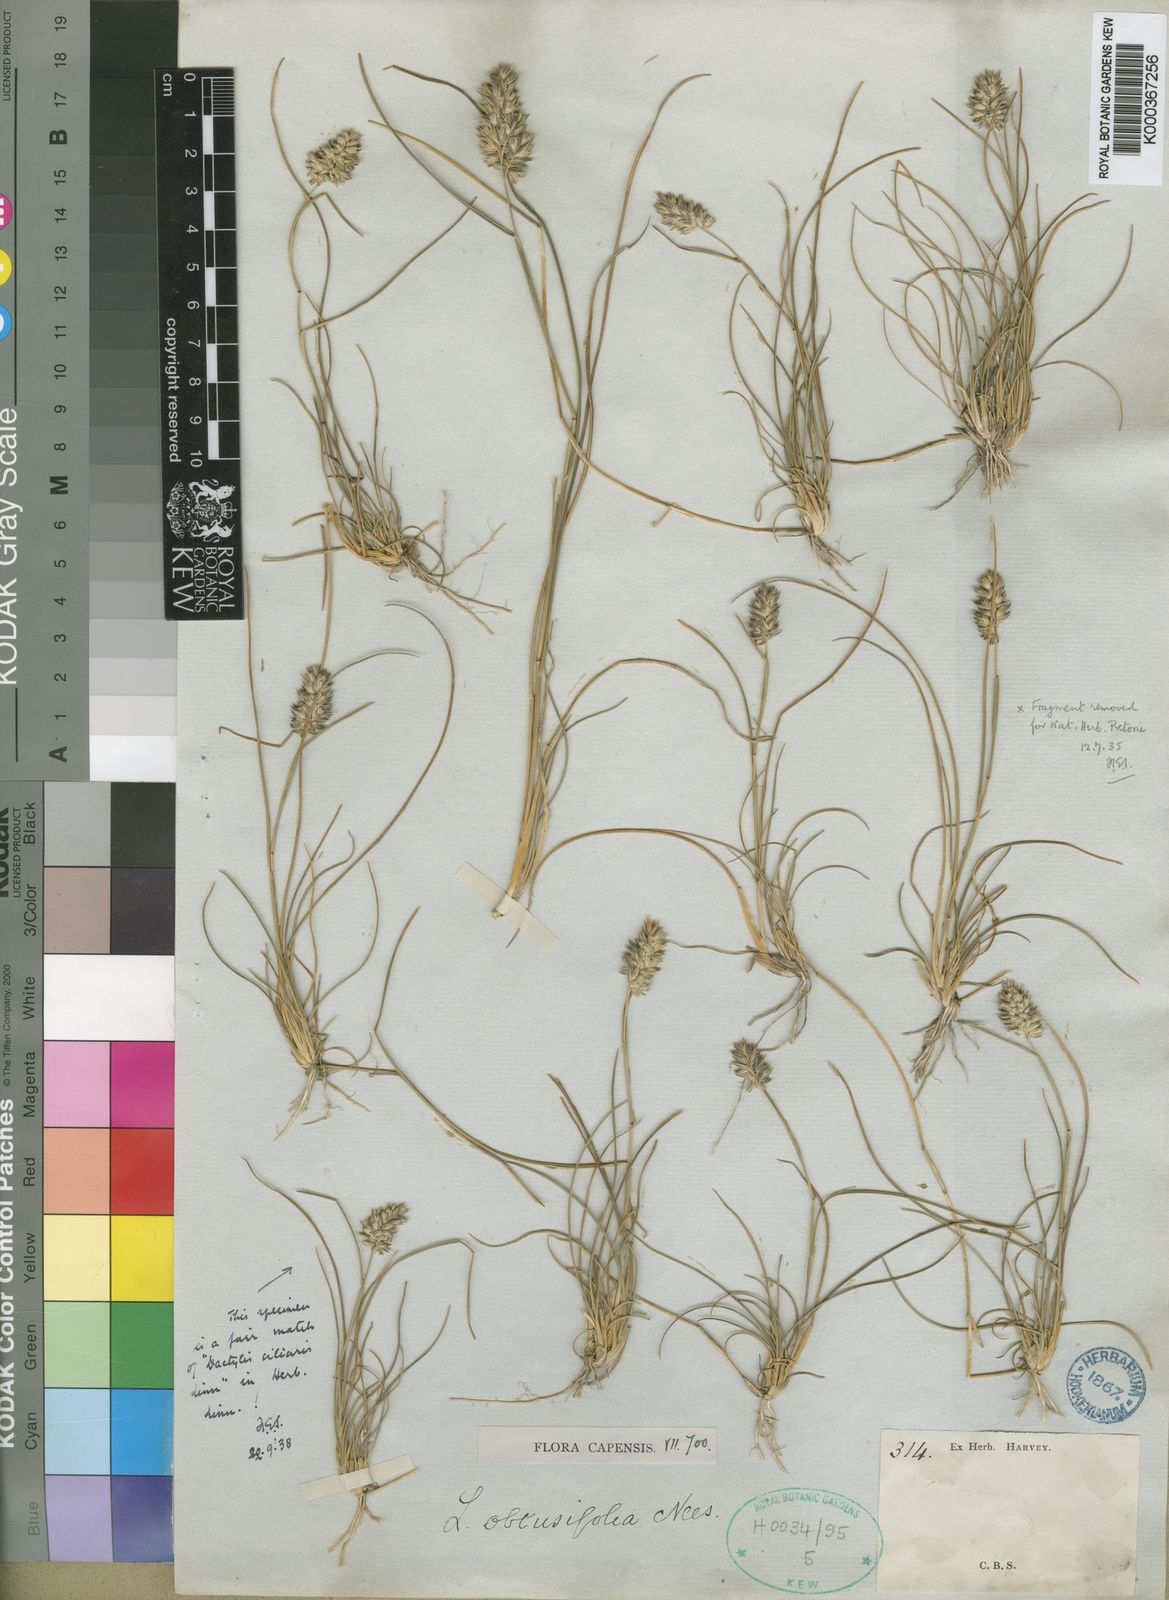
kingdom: Plantae
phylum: Tracheophyta
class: Liliopsida
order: Poales
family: Poaceae
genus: Tribolium
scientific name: Tribolium obtusifolium
